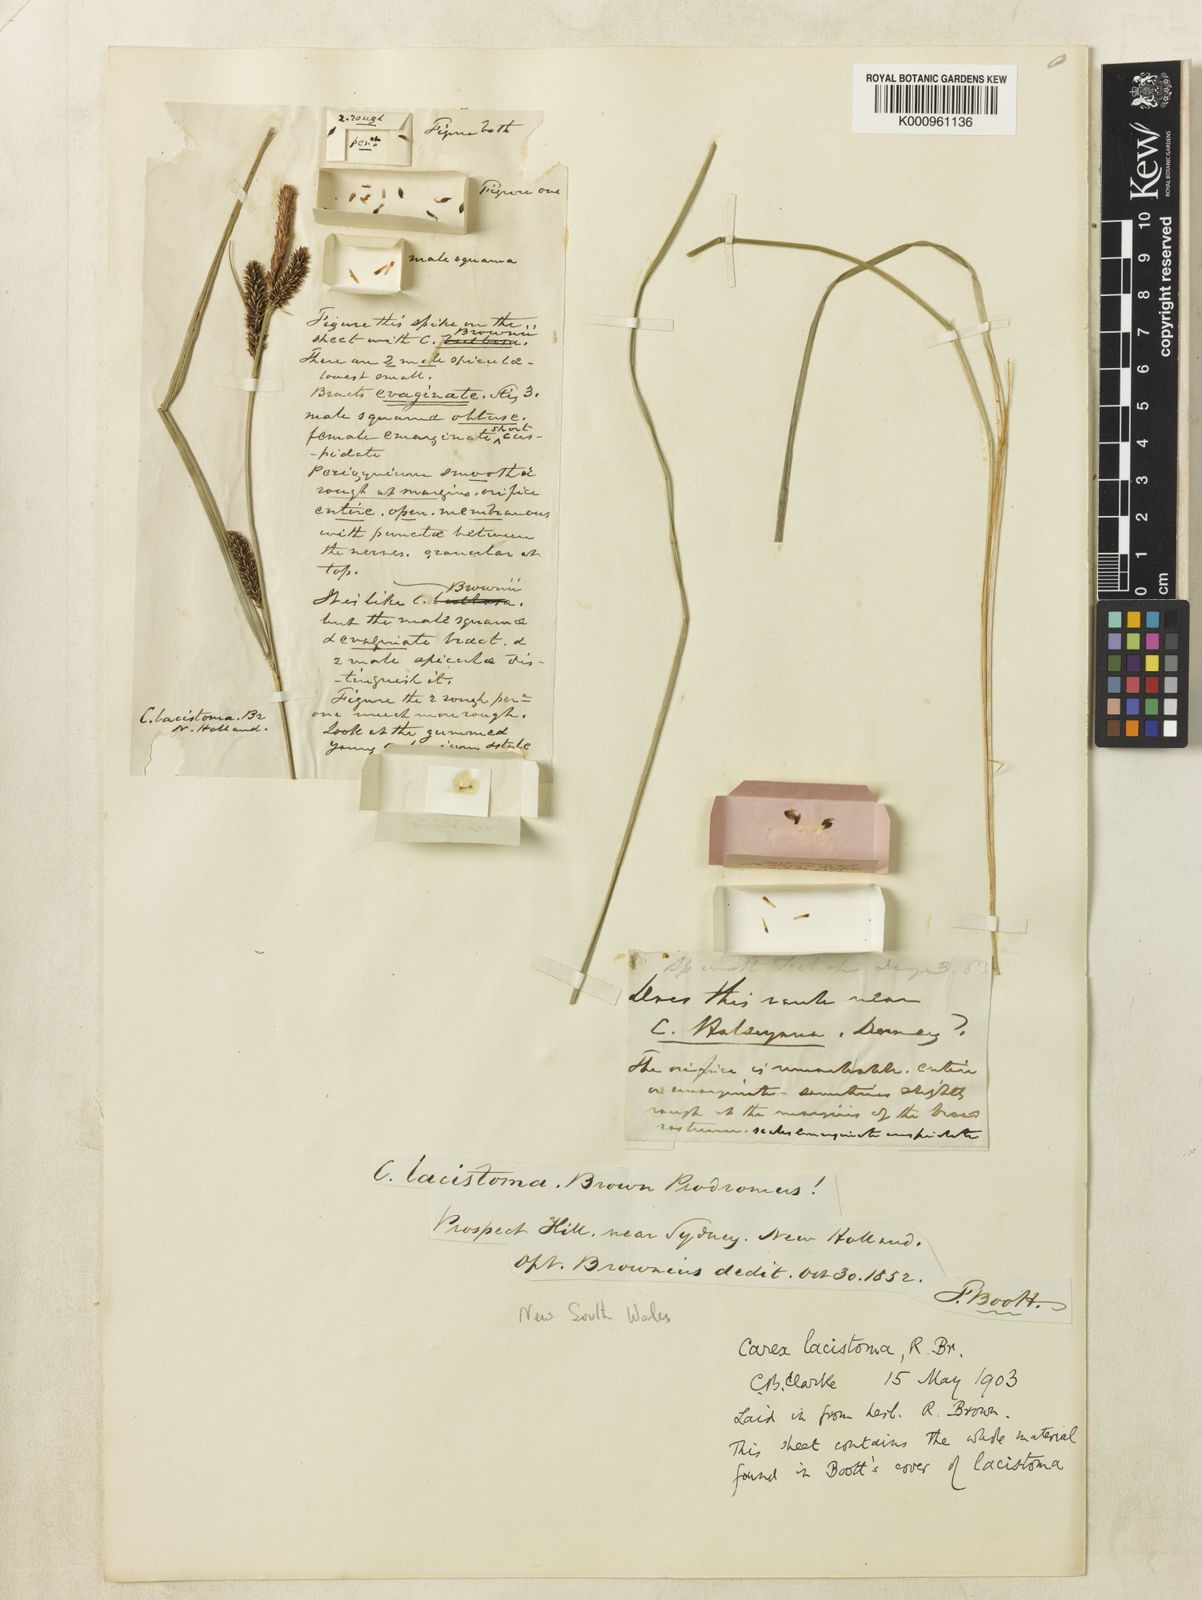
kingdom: Plantae
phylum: Tracheophyta
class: Liliopsida
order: Poales
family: Cyperaceae
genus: Carex
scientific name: Carex lacistoma
